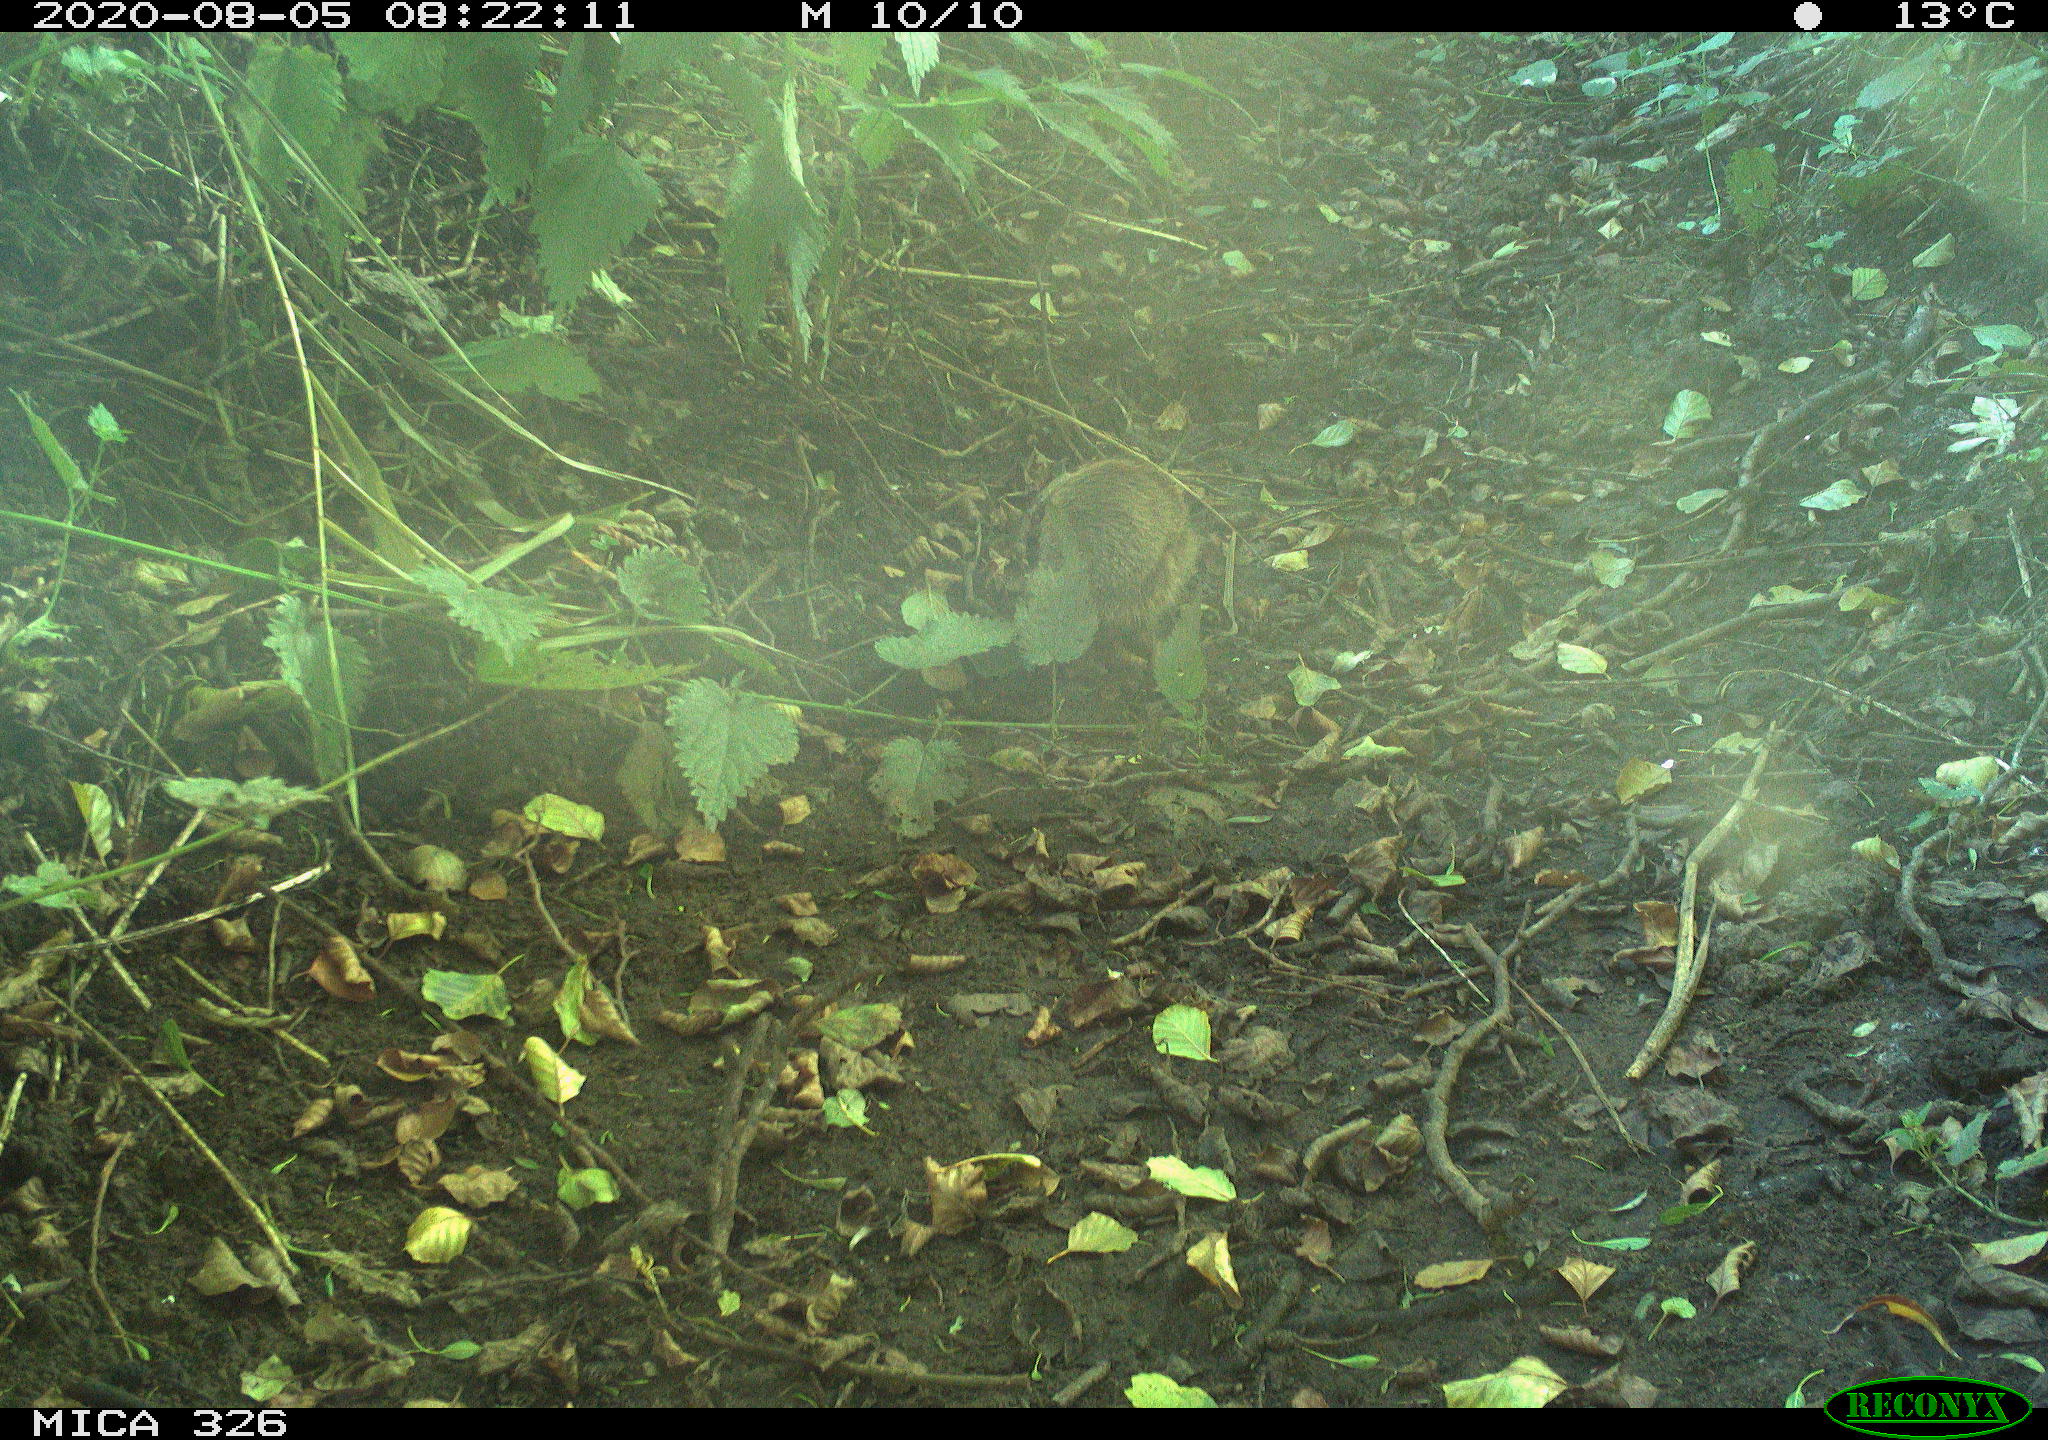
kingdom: Animalia
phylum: Chordata
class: Mammalia
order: Erinaceomorpha
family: Erinaceidae
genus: Erinaceus
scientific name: Erinaceus europaeus
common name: West european hedgehog
